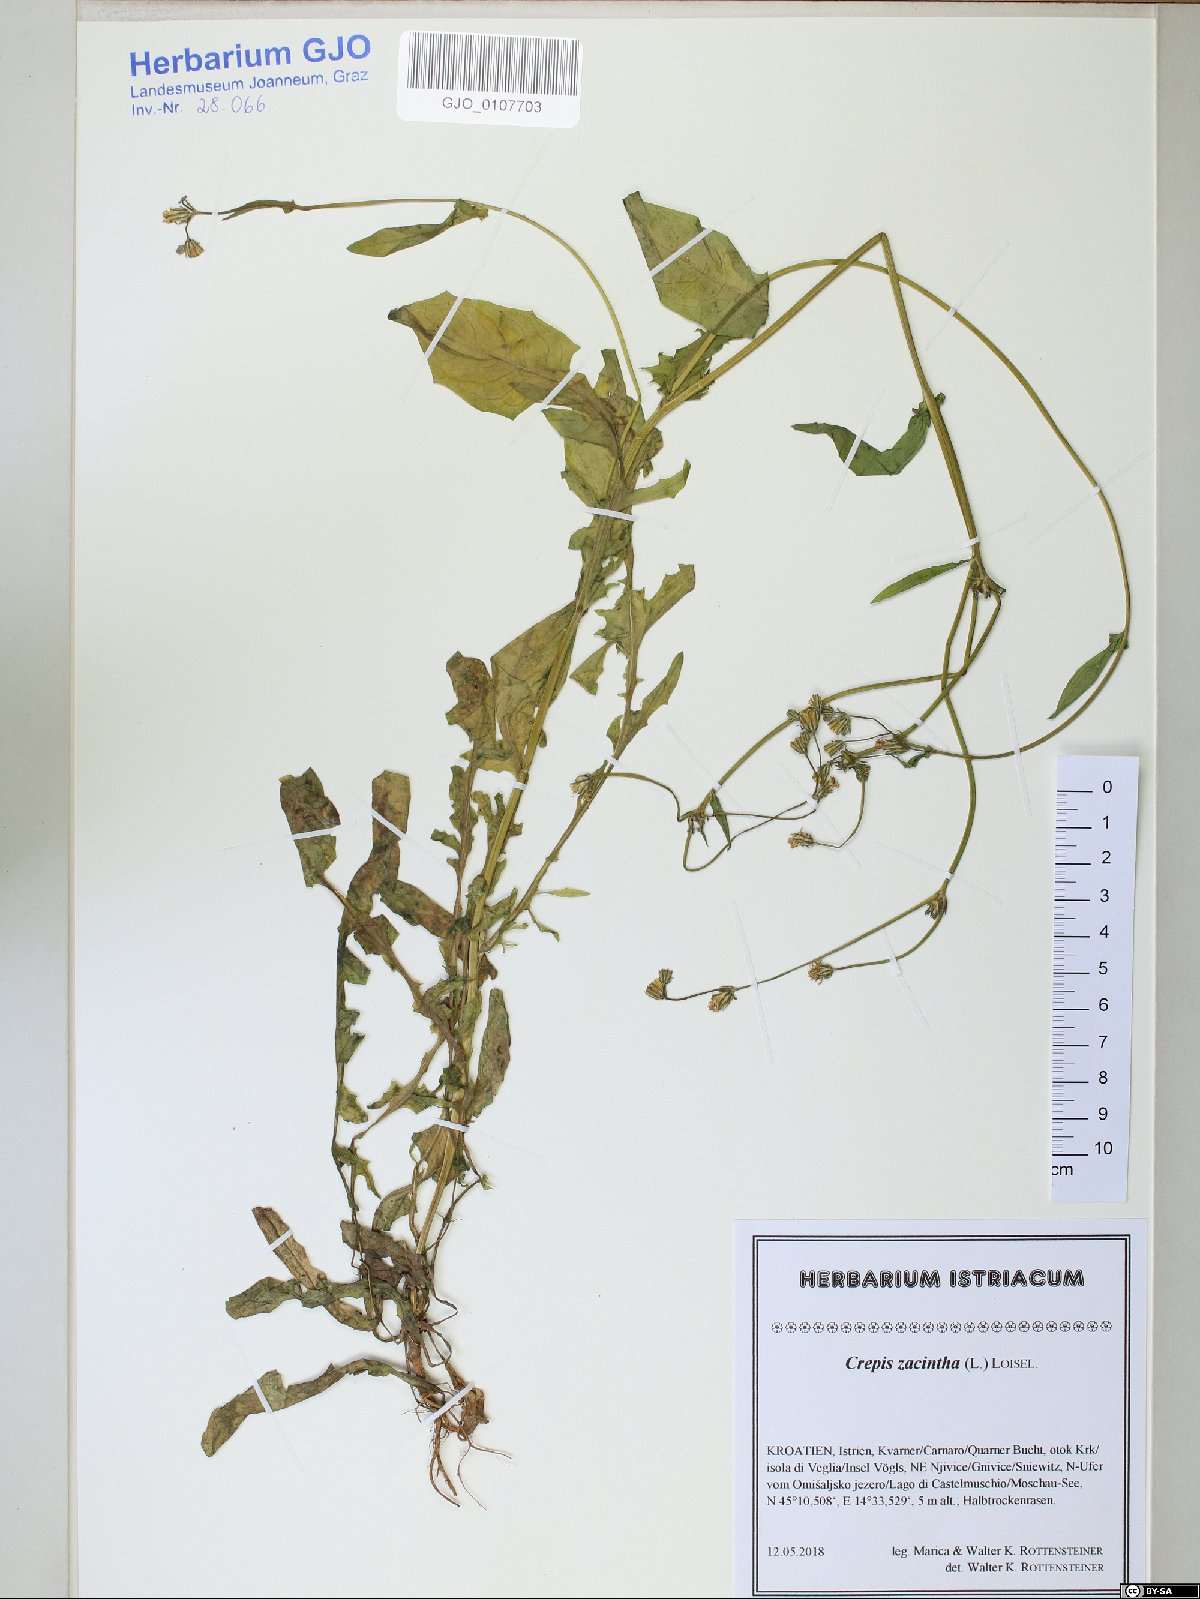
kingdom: Plantae
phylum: Tracheophyta
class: Magnoliopsida
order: Asterales
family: Asteraceae
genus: Crepis
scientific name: Crepis zacintha
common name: Striped hawksbeard
